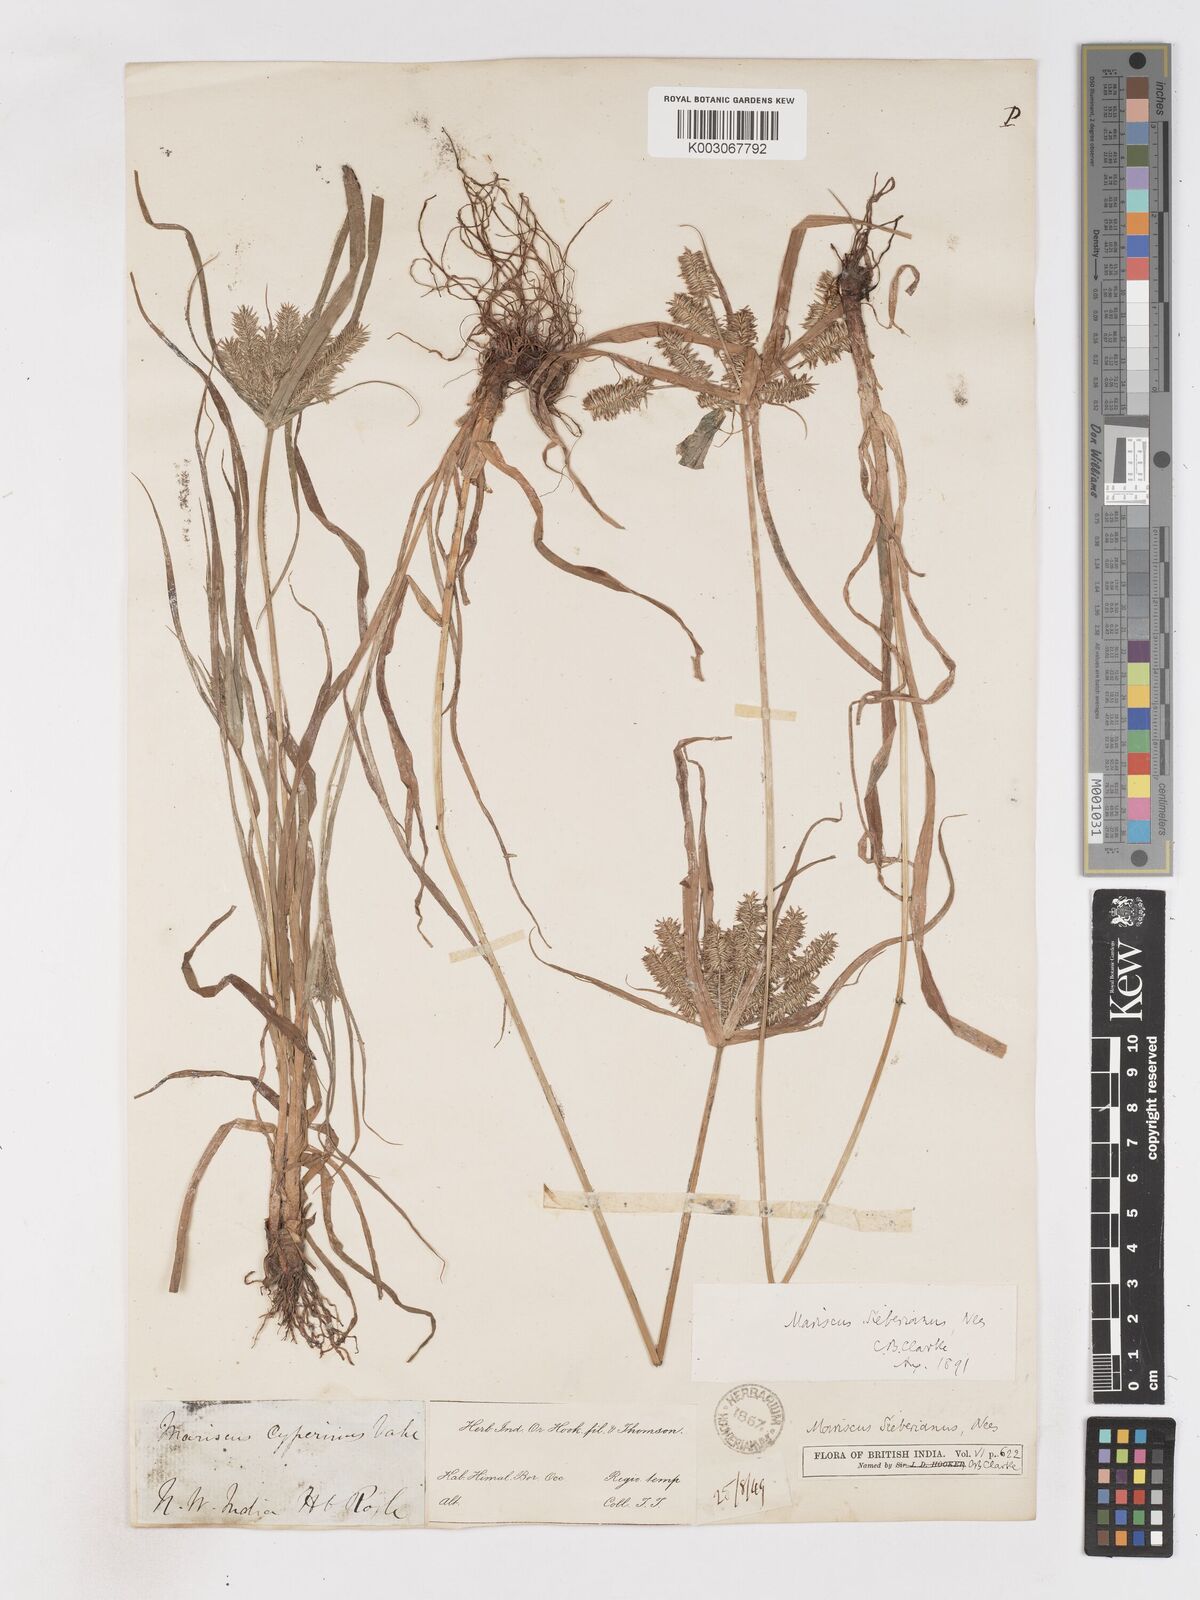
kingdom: Plantae
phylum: Tracheophyta
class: Liliopsida
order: Poales
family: Cyperaceae
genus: Cyperus
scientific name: Cyperus cyperoides
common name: Pacific island flat sedge
